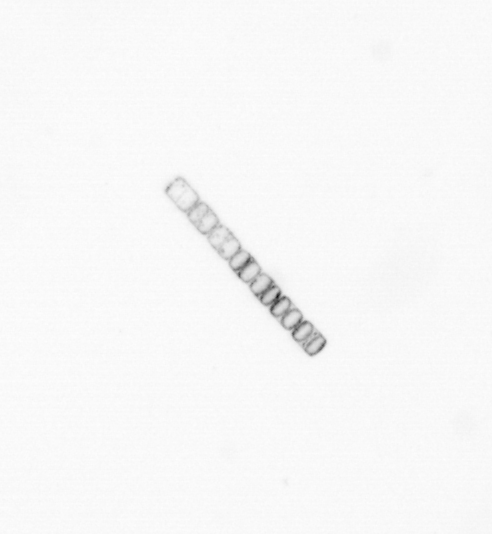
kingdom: Chromista
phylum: Ochrophyta
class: Bacillariophyceae
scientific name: Bacillariophyceae
